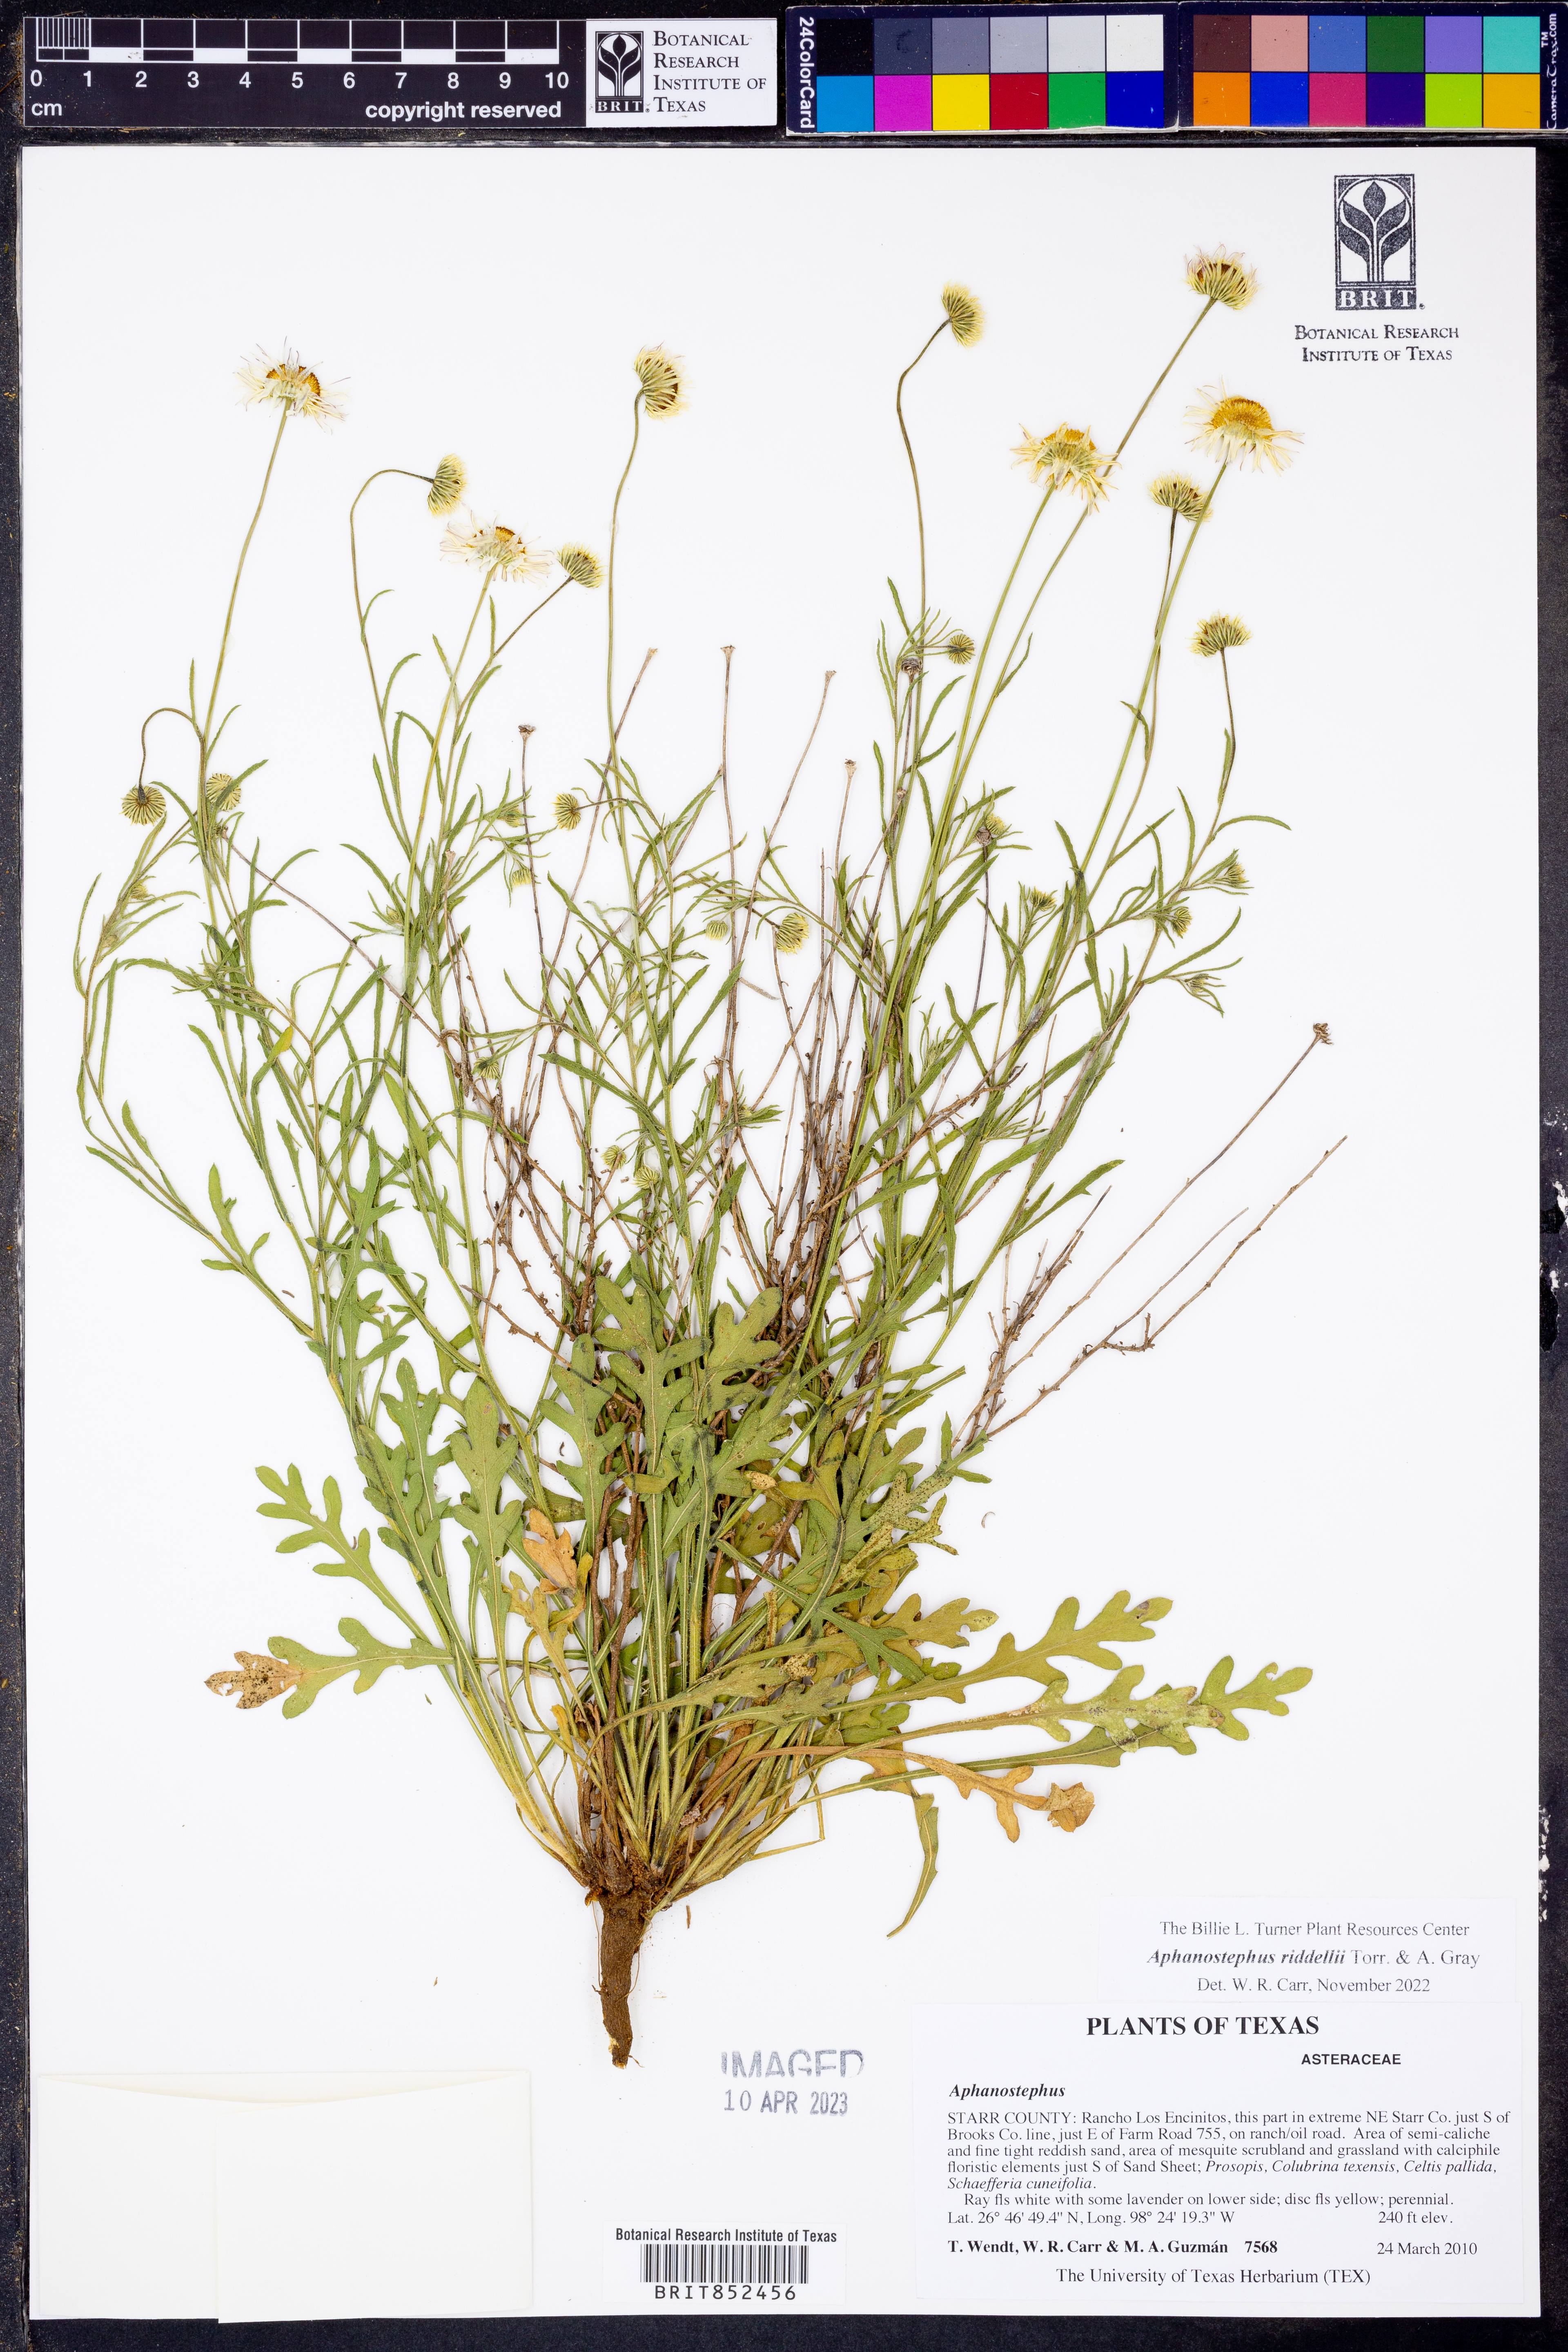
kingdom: Plantae
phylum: Tracheophyta
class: Magnoliopsida
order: Asterales
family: Asteraceae
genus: Aphanostephus
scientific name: Aphanostephus riddellii
